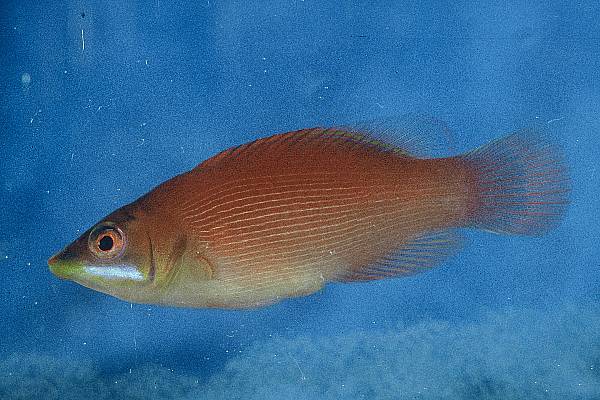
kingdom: Animalia
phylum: Chordata
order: Perciformes
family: Labridae
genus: Pseudocheilinus
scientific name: Pseudocheilinus evanidus
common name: Disappearing wrasse
